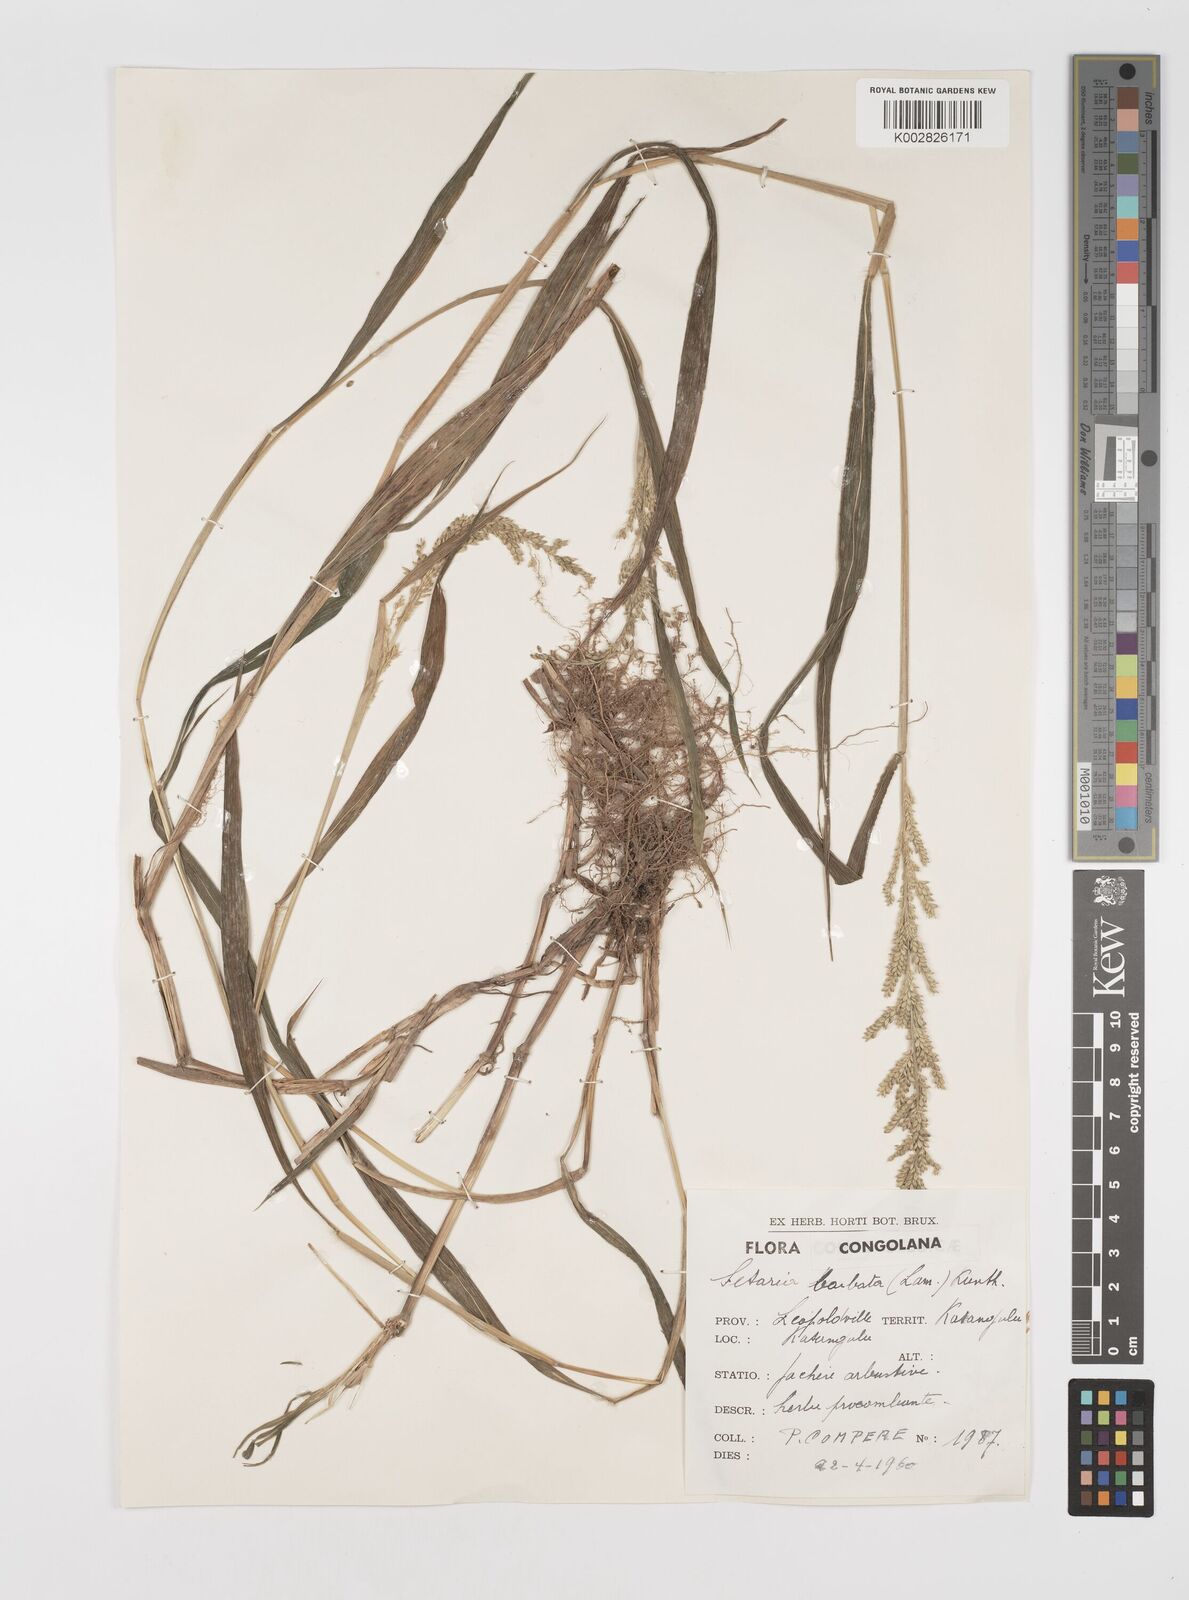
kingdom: Plantae
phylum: Tracheophyta
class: Liliopsida
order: Poales
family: Poaceae
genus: Setaria
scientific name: Setaria barbata
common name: East indian bristlegrass
